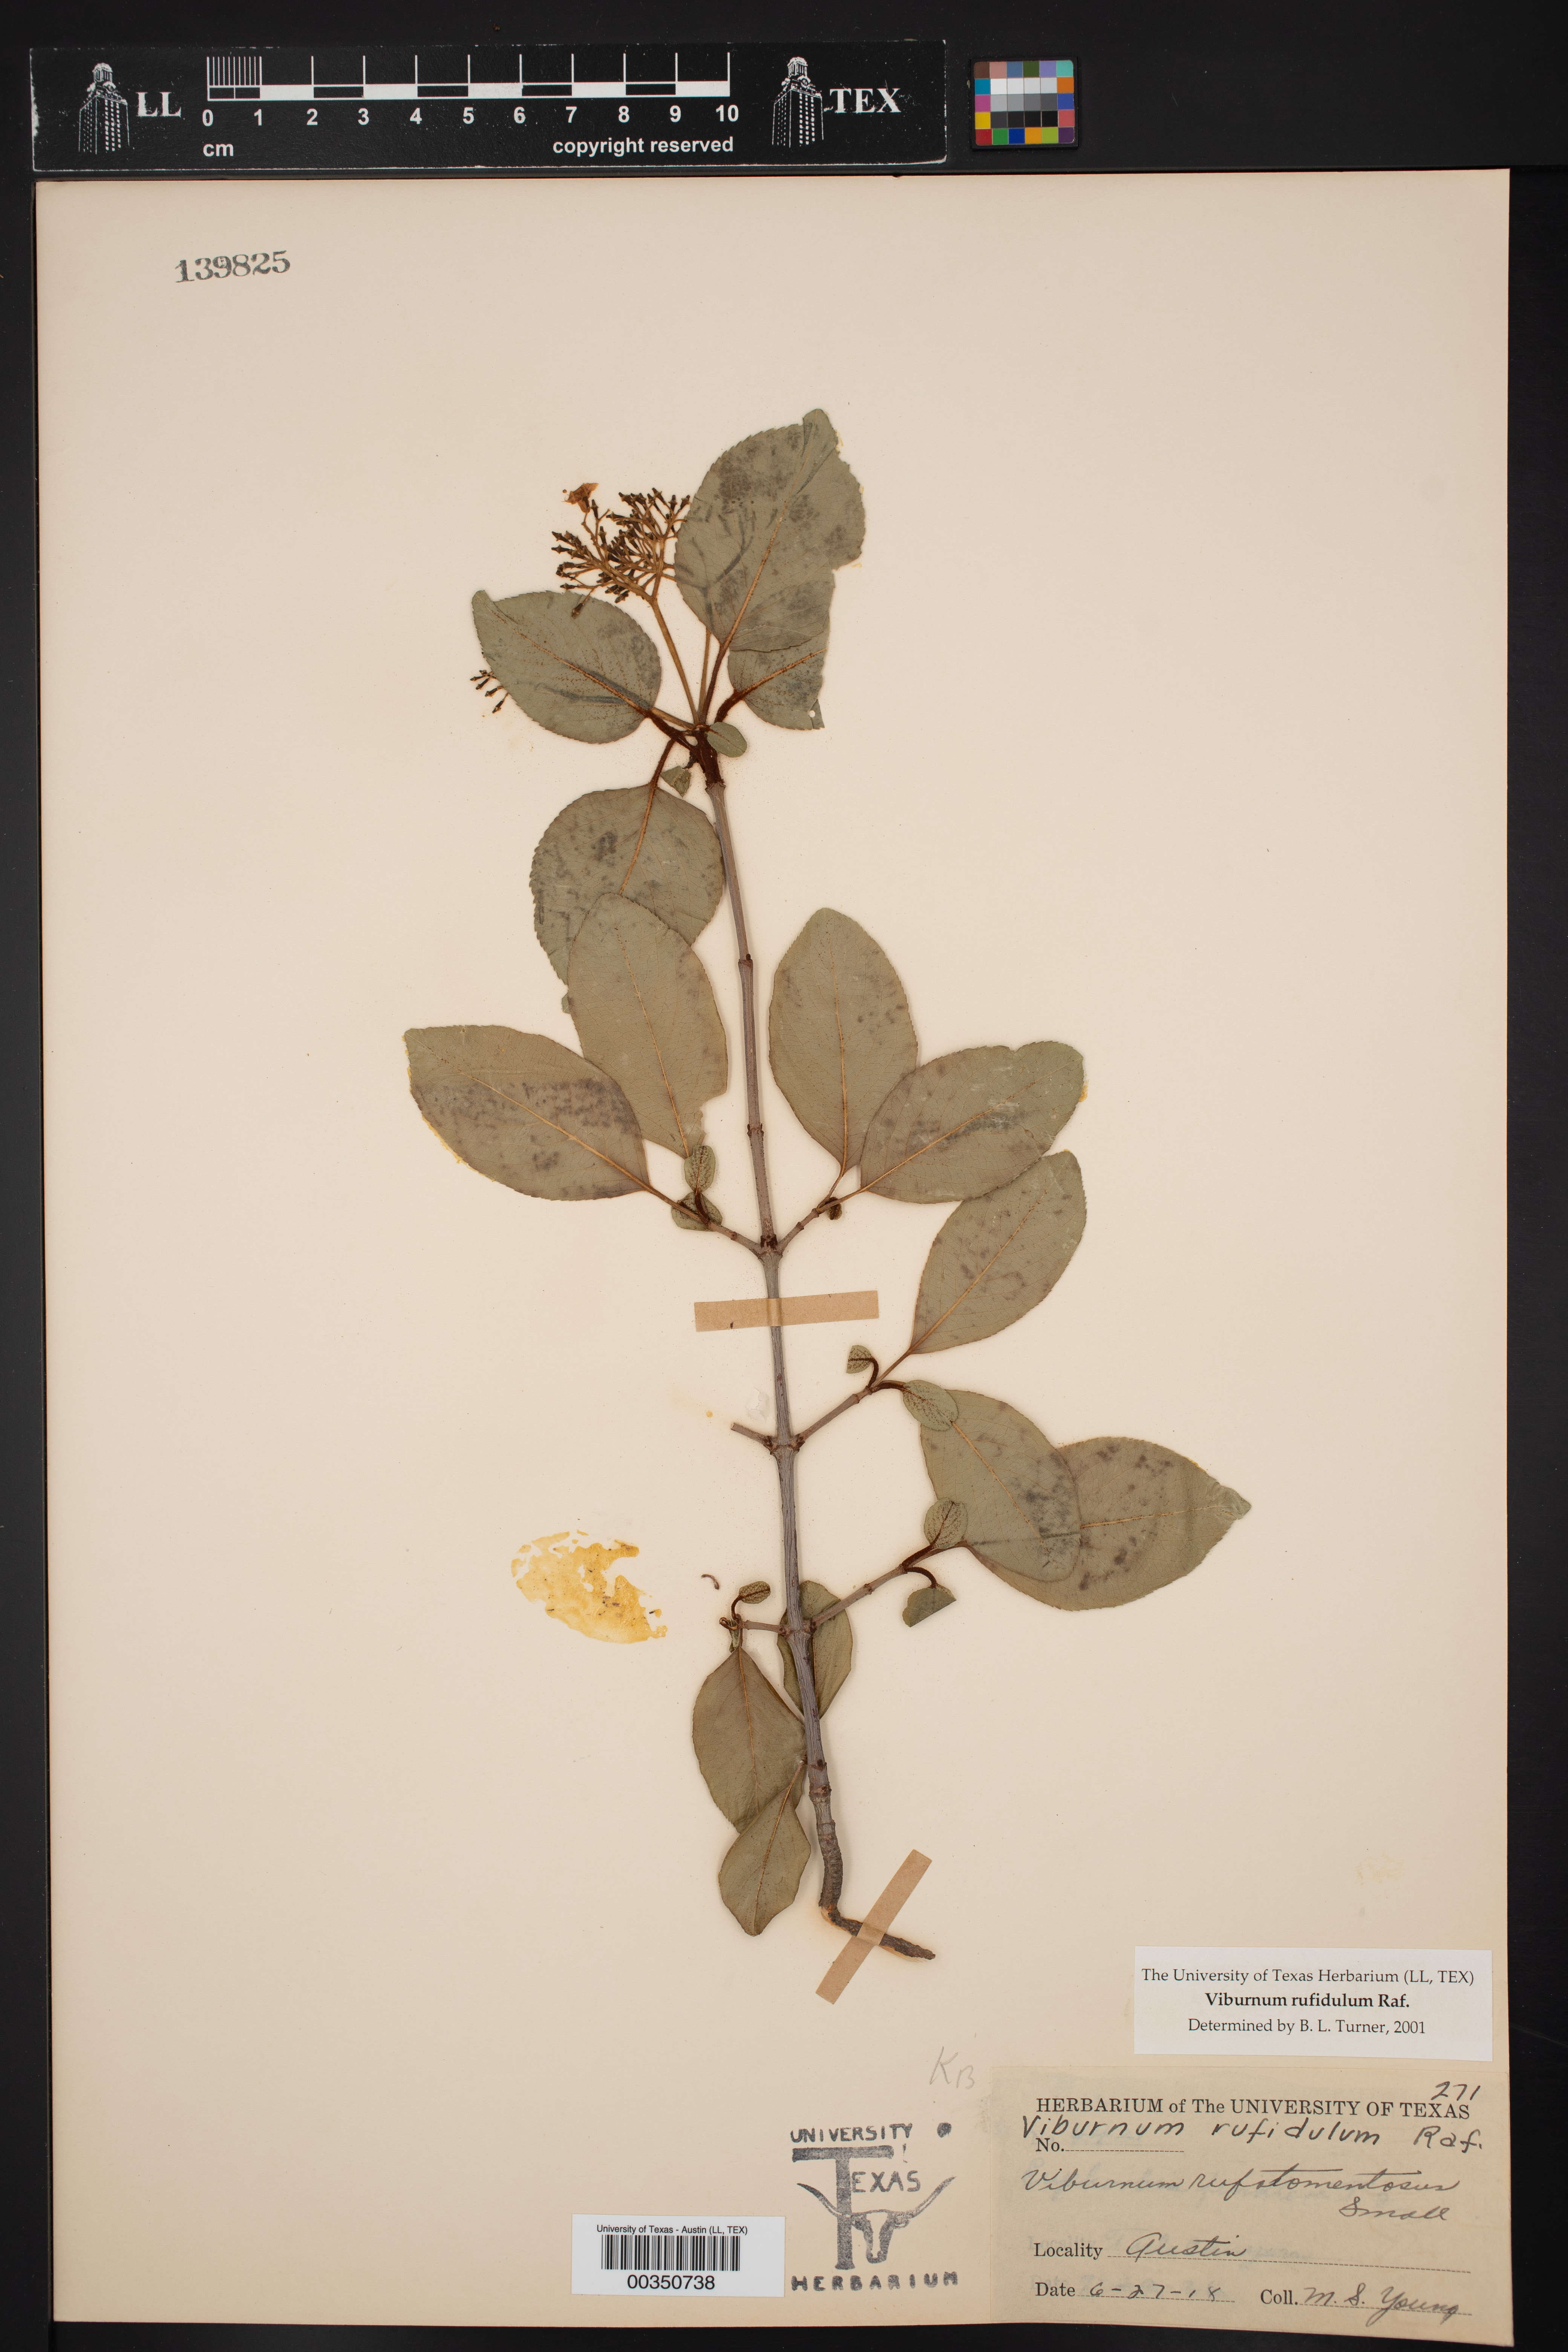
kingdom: Plantae
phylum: Tracheophyta
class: Magnoliopsida
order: Dipsacales
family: Viburnaceae
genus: Viburnum
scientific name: Viburnum rufidulum
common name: Blue haw
